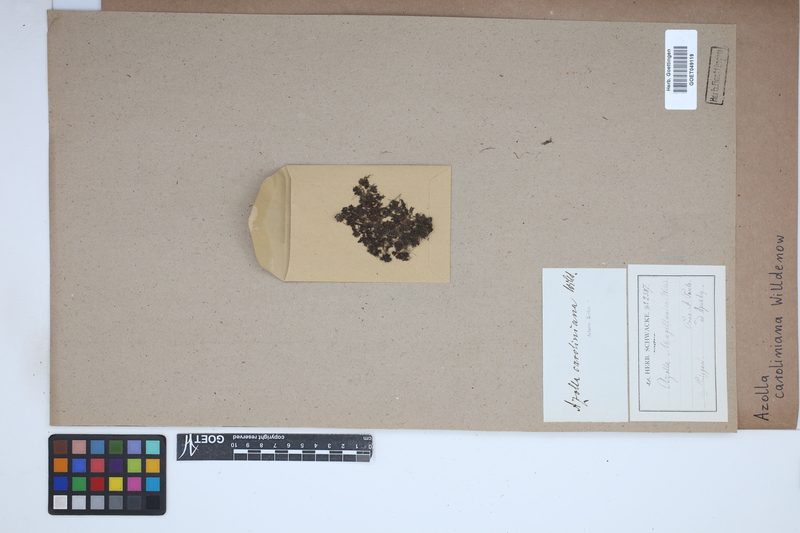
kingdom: Plantae
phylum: Tracheophyta
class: Polypodiopsida
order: Salviniales
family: Salviniaceae
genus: Azolla
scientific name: Azolla caroliniana
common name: Carolina mosquitofern
